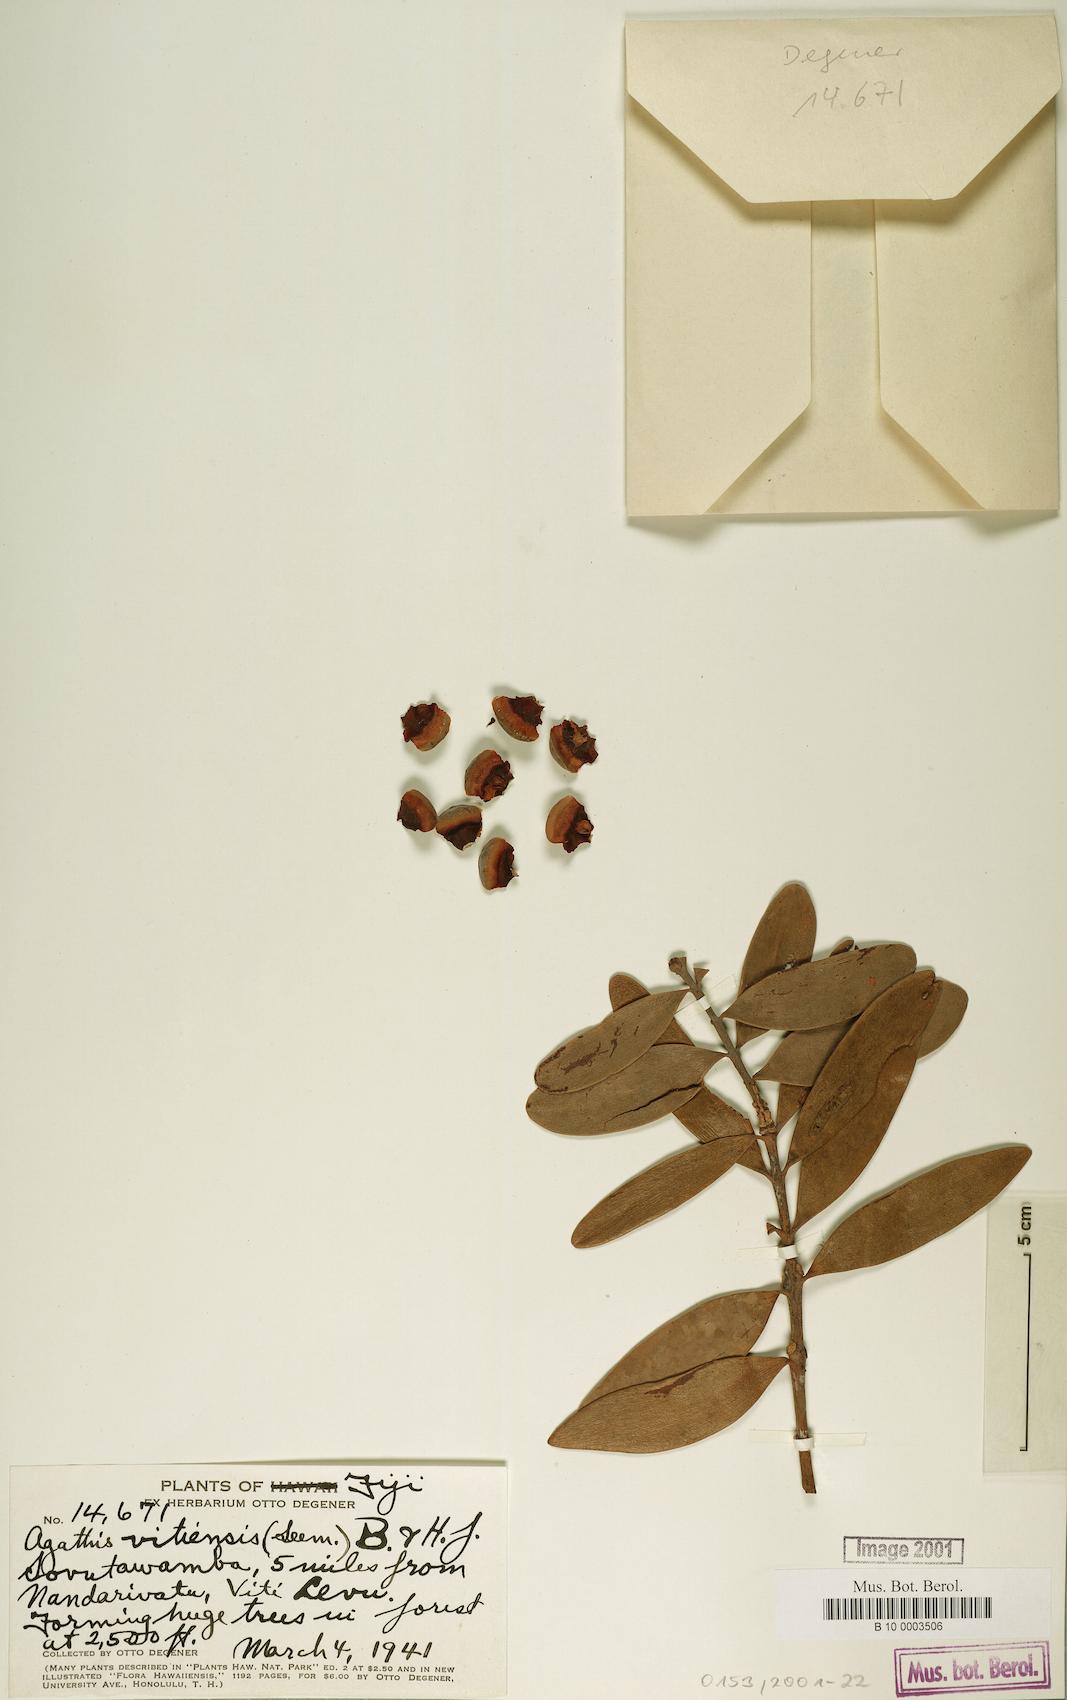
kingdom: Plantae
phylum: Tracheophyta
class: Pinopsida
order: Pinales
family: Araucariaceae
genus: Agathis
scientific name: Agathis macrophylla
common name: Fijian kauri pine
